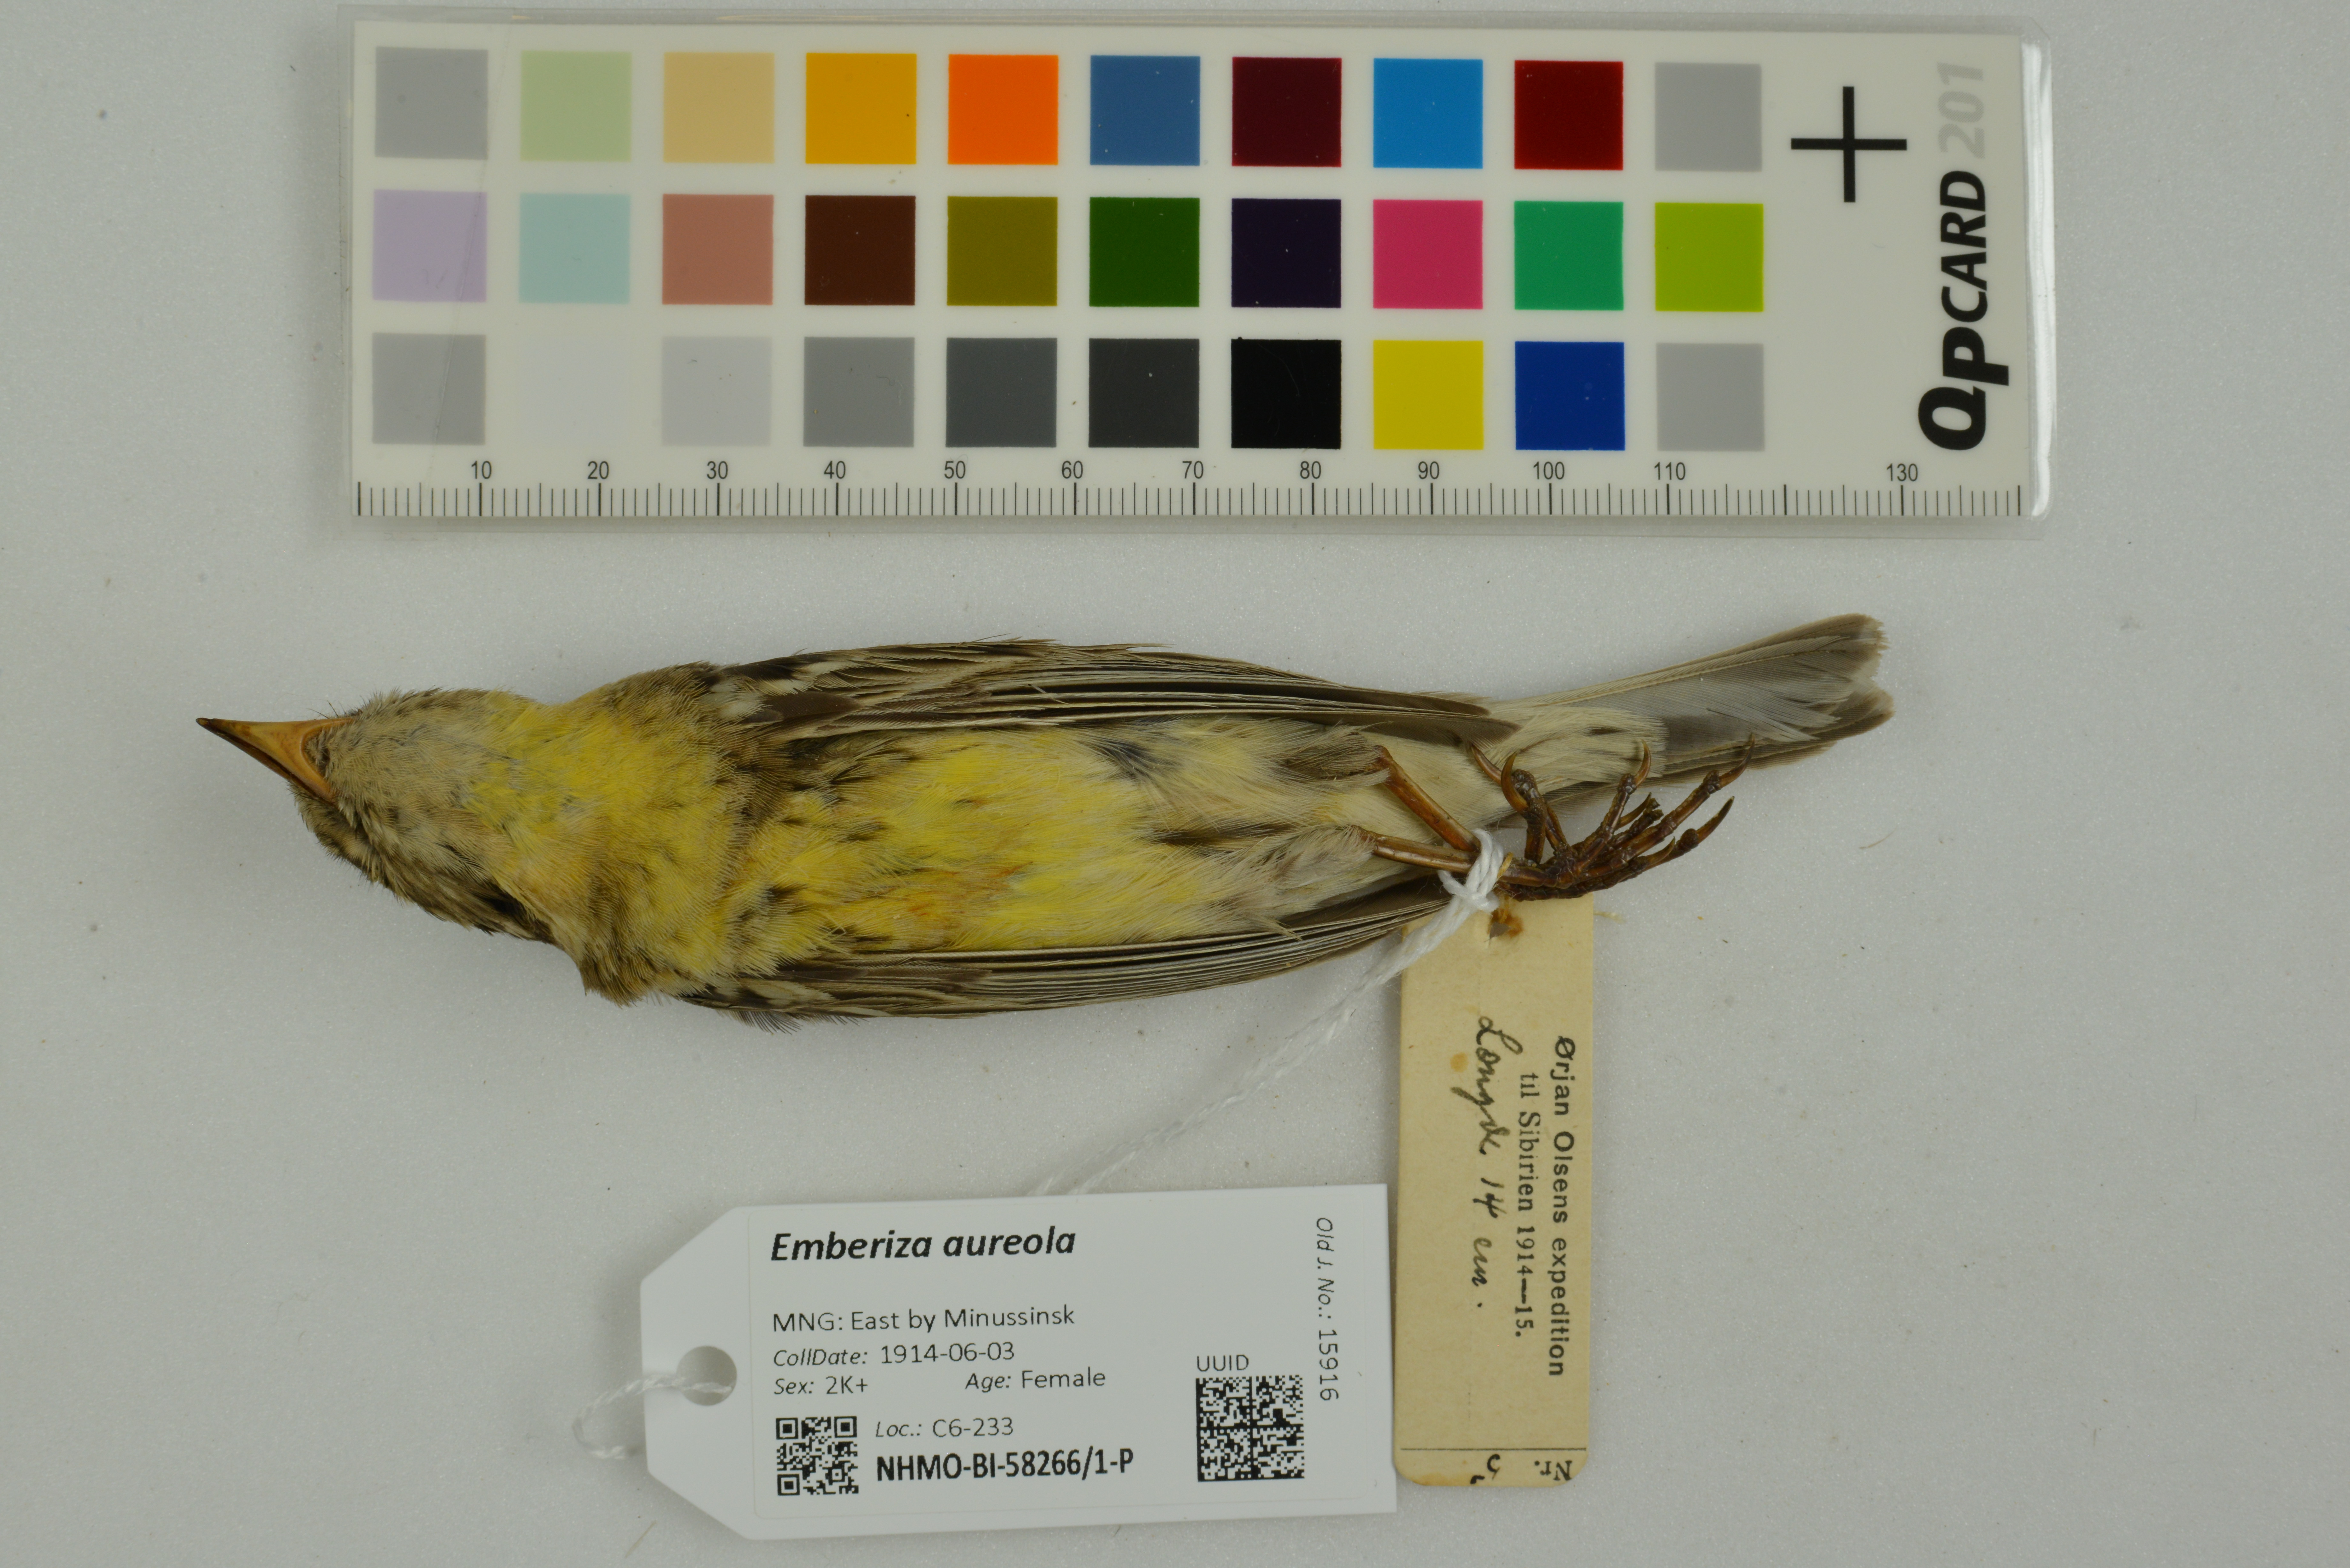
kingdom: Animalia
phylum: Chordata
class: Aves
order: Passeriformes
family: Emberizidae
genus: Emberiza
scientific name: Emberiza aureola
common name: Yellow-breasted bunting
